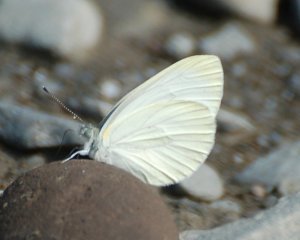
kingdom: Animalia
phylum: Arthropoda
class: Insecta
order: Lepidoptera
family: Pieridae
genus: Pieris
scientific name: Pieris oleracea
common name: Mustard White
